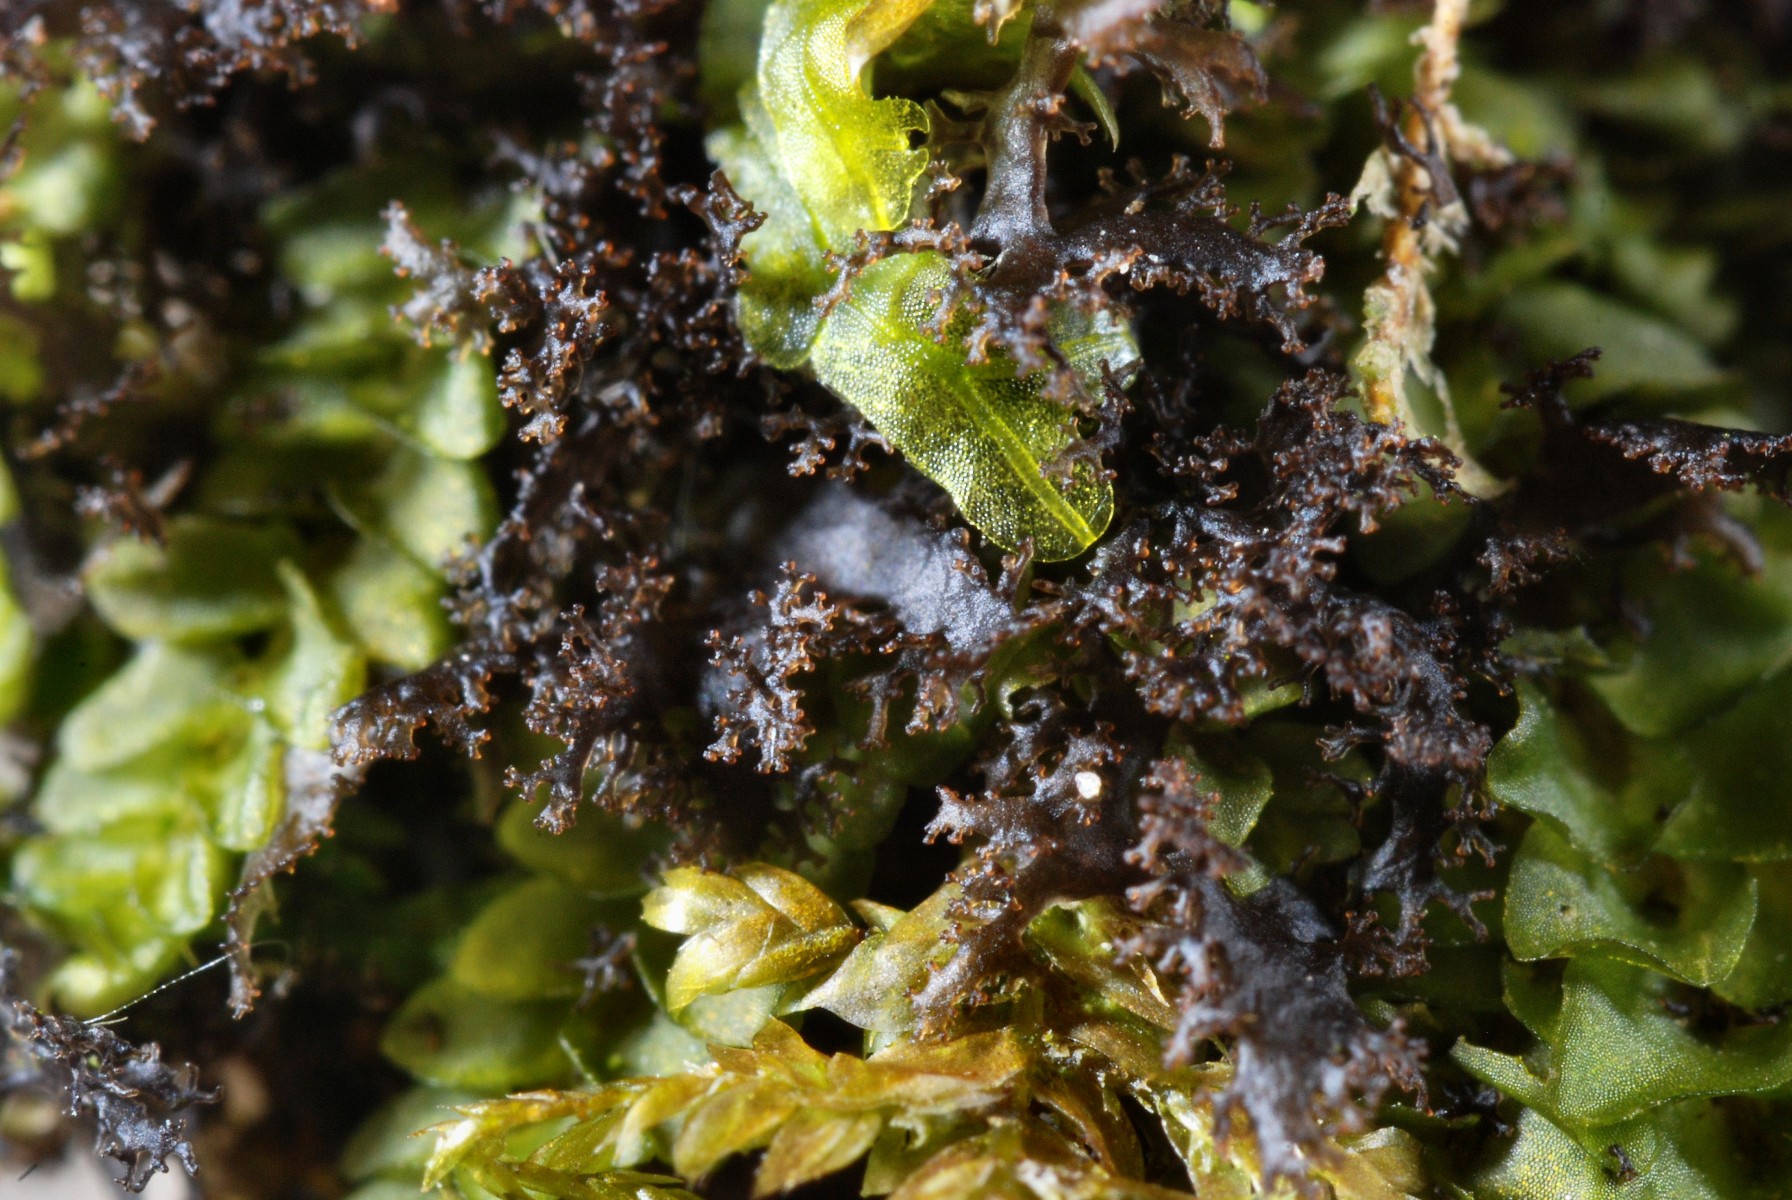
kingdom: Fungi
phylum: Ascomycota
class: Lecanoromycetes
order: Peltigerales
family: Collemataceae
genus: Scytinium
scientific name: Scytinium lichenoides
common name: frynset hindelav
